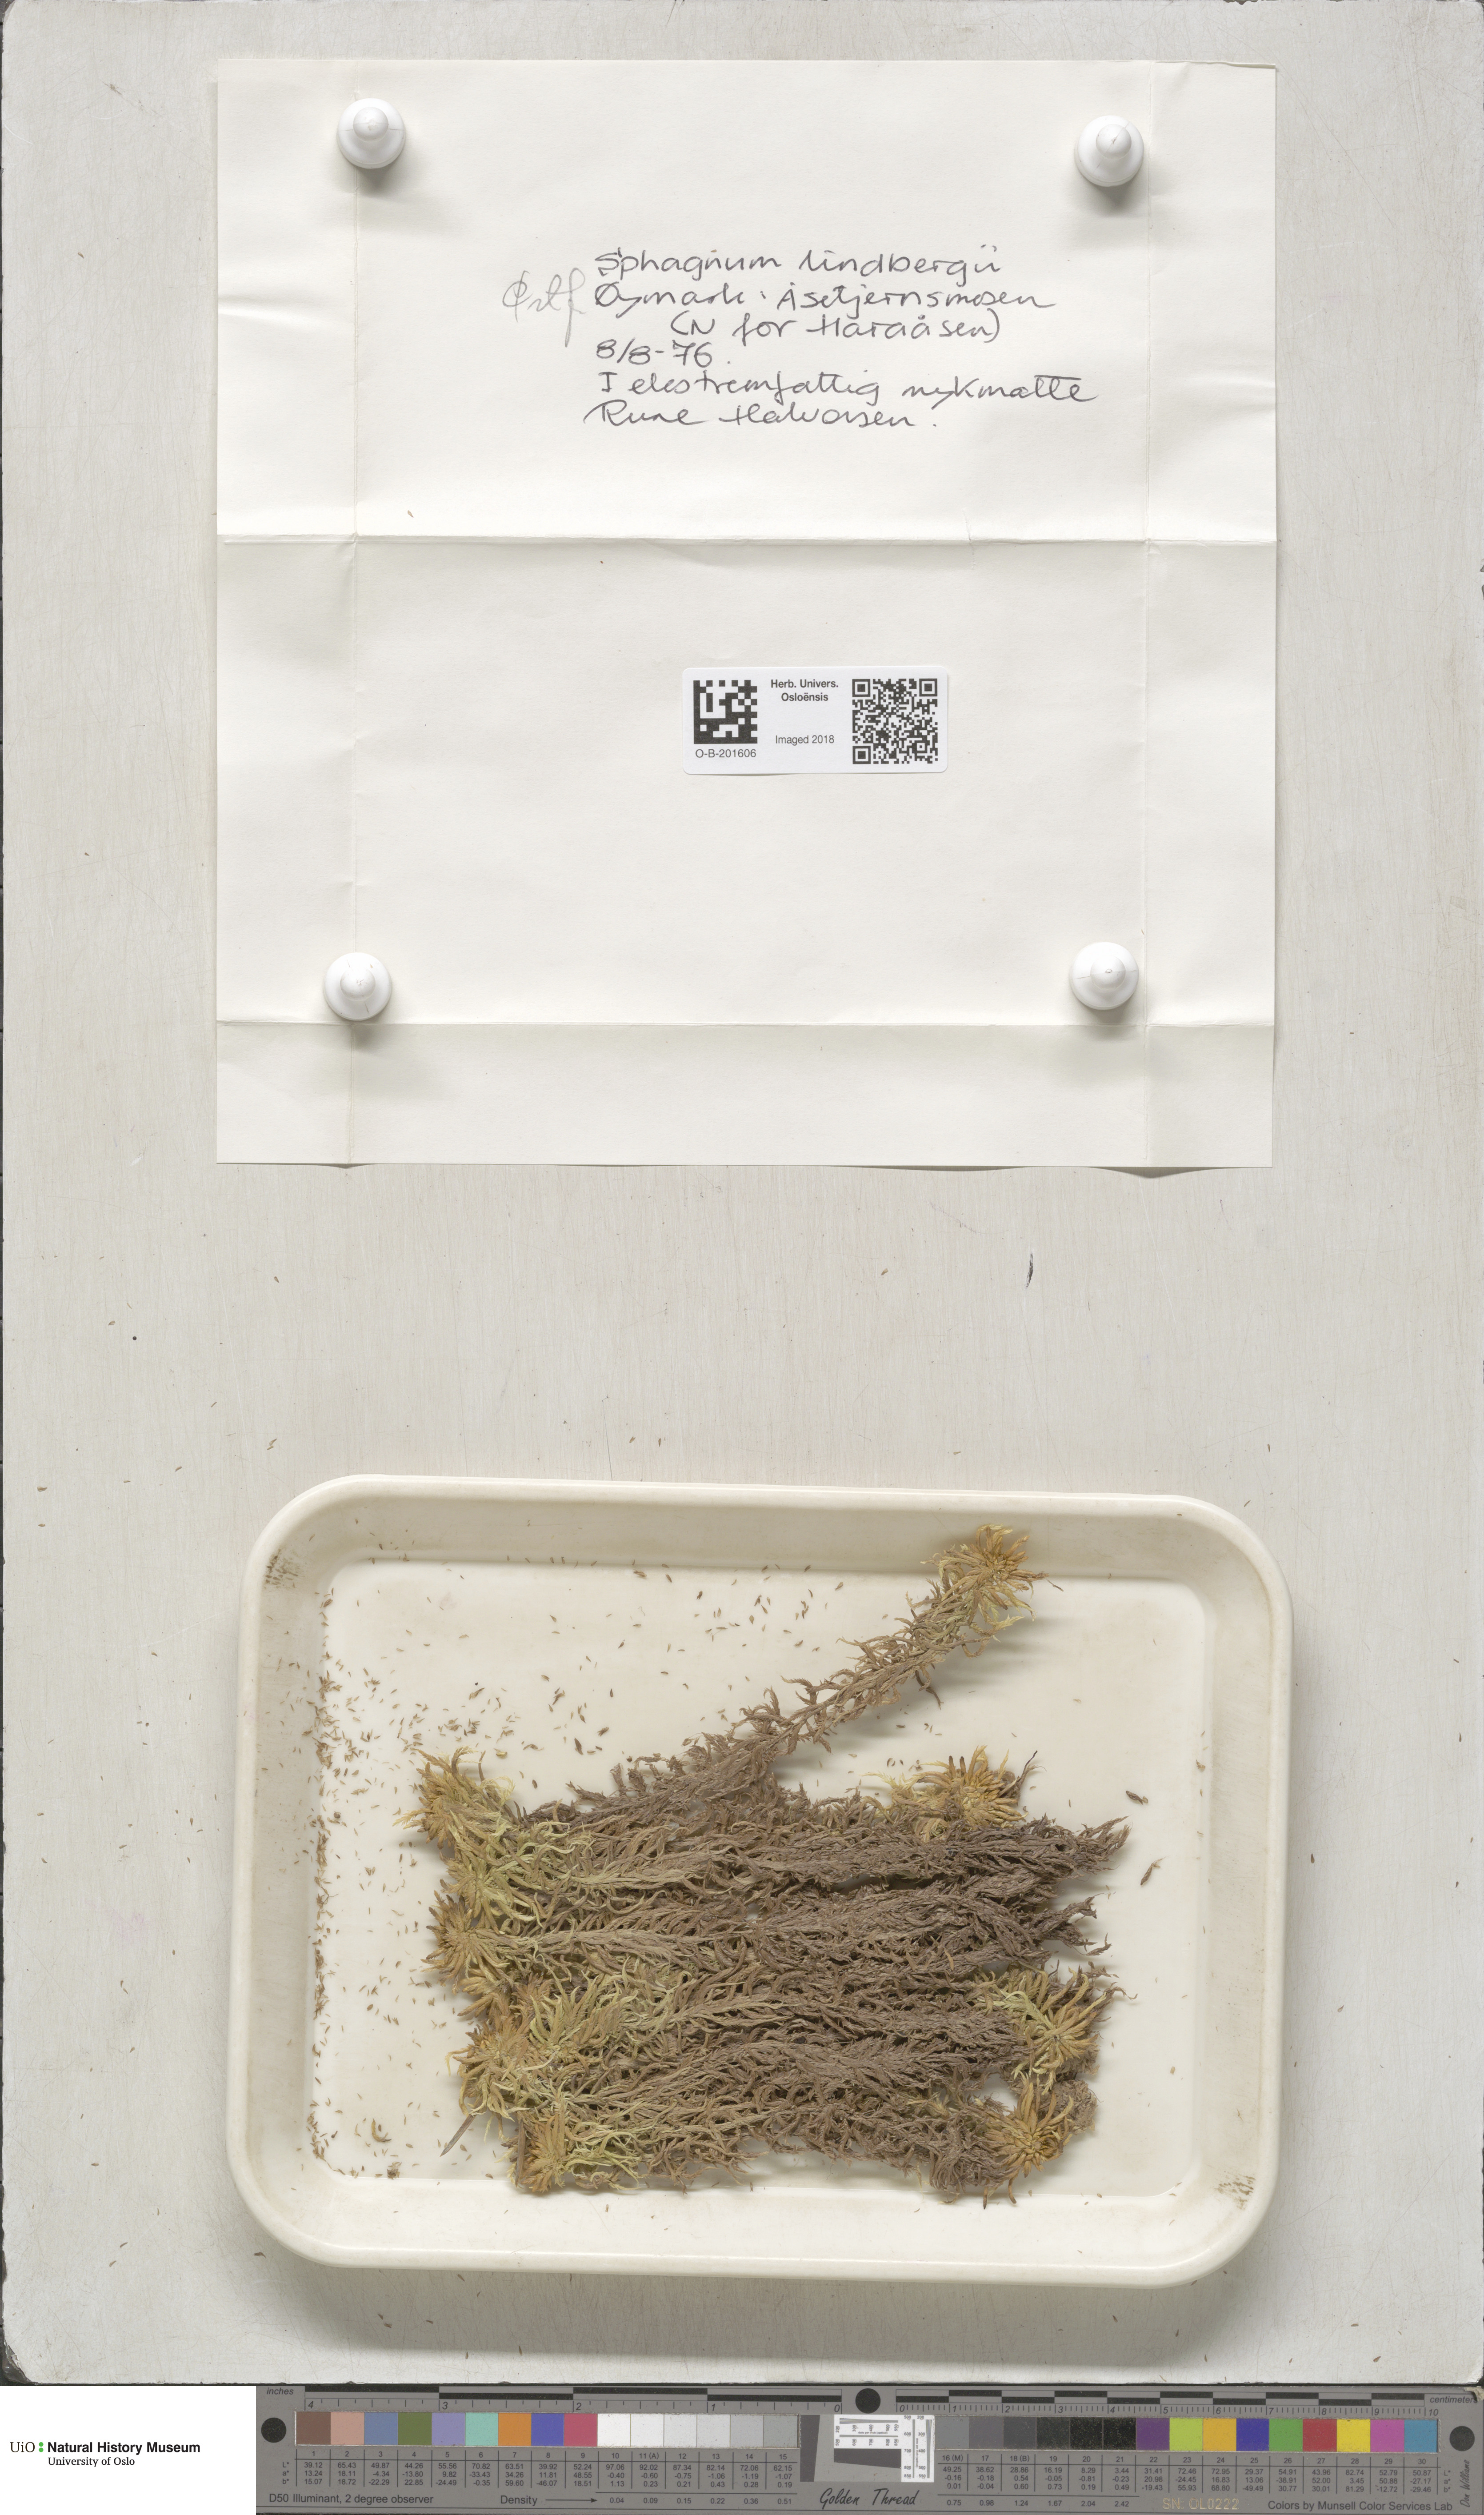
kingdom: Plantae
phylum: Bryophyta
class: Sphagnopsida
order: Sphagnales
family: Sphagnaceae
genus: Sphagnum
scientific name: Sphagnum lindbergii
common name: Lindberg's peat moss
